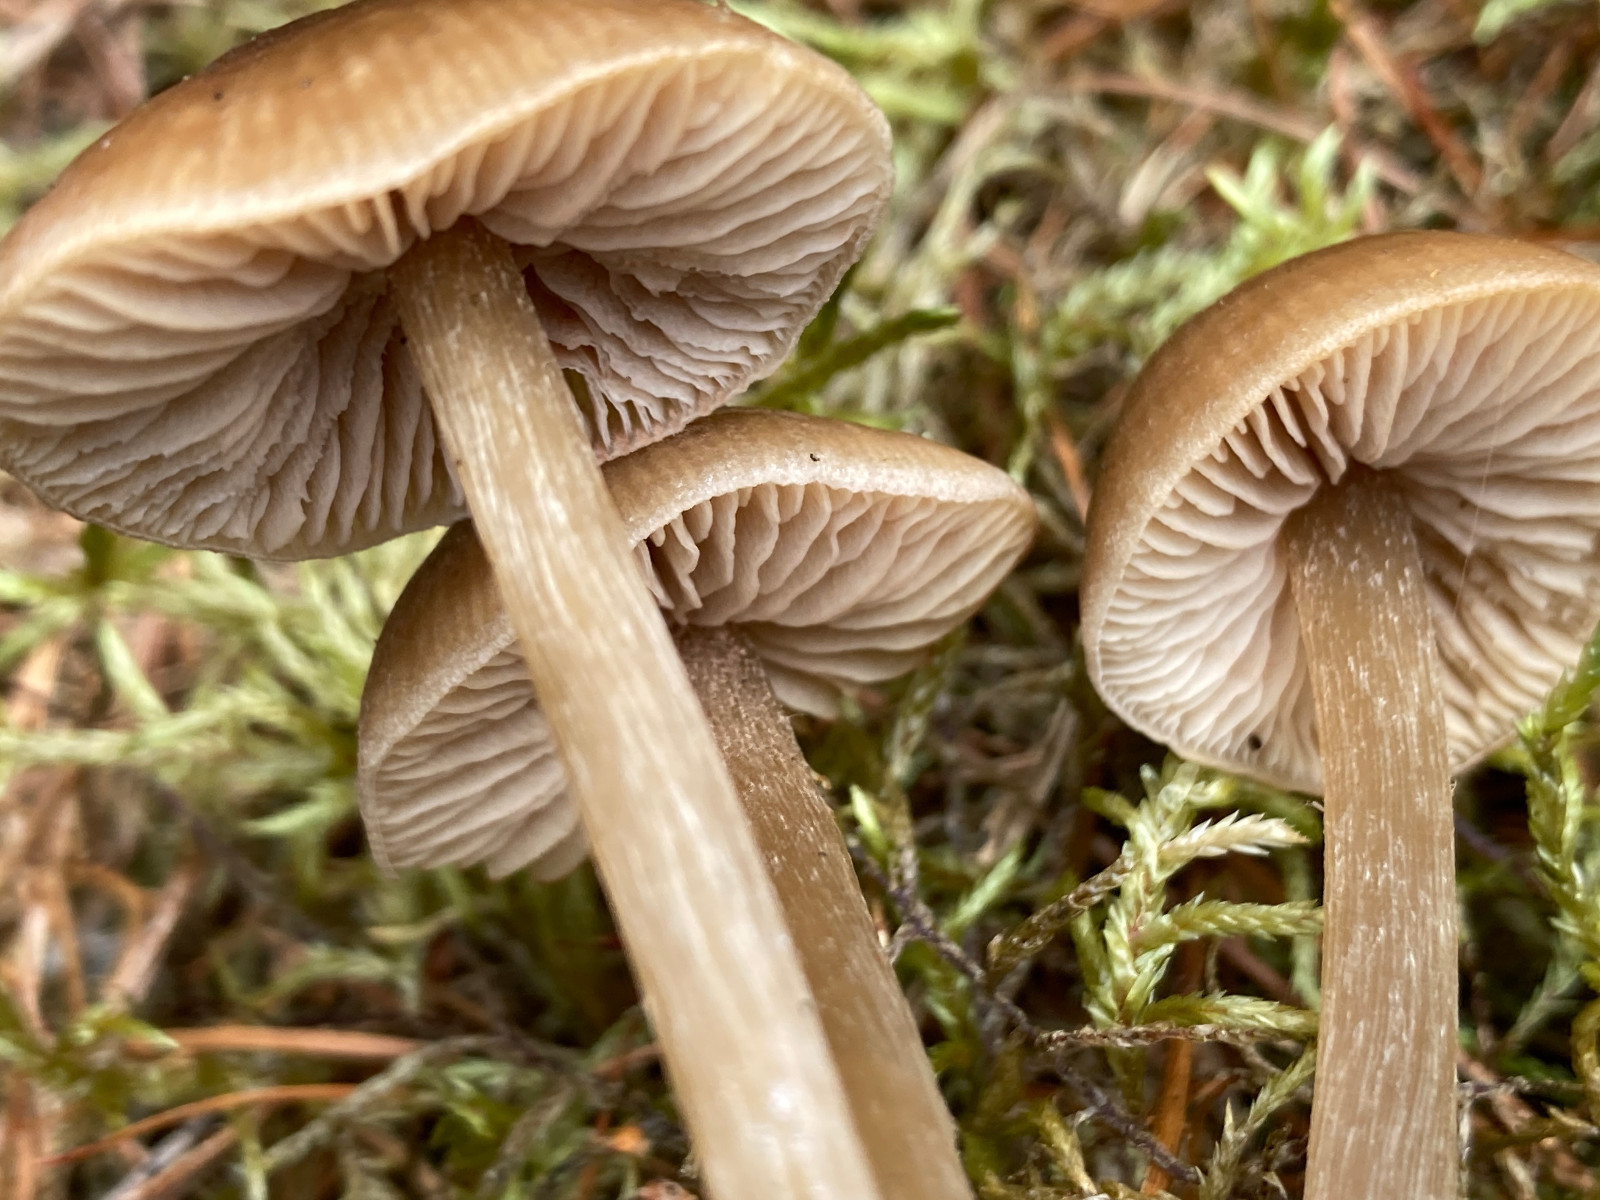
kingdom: Fungi
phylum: Basidiomycota
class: Agaricomycetes
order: Agaricales
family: Entolomataceae
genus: Entoloma
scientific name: Entoloma
